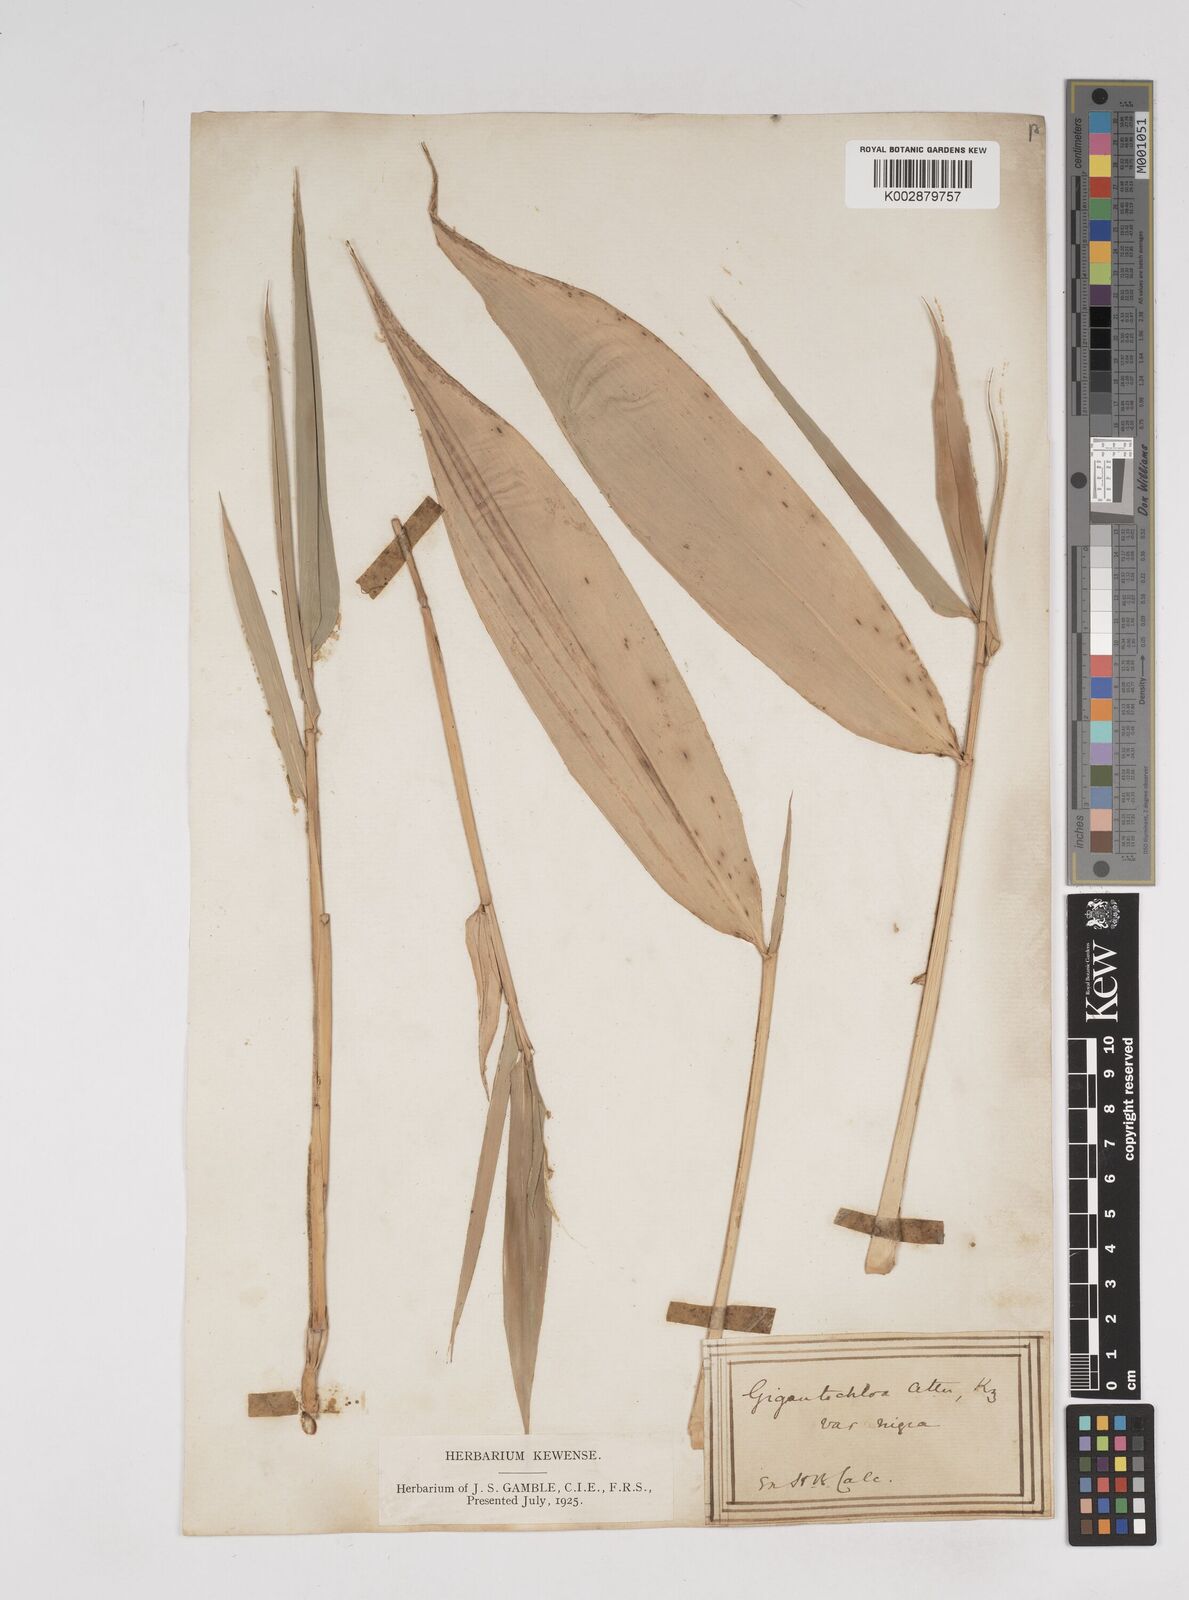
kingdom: Plantae
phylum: Tracheophyta
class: Liliopsida
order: Poales
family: Poaceae
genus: Gigantochloa
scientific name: Gigantochloa atter
